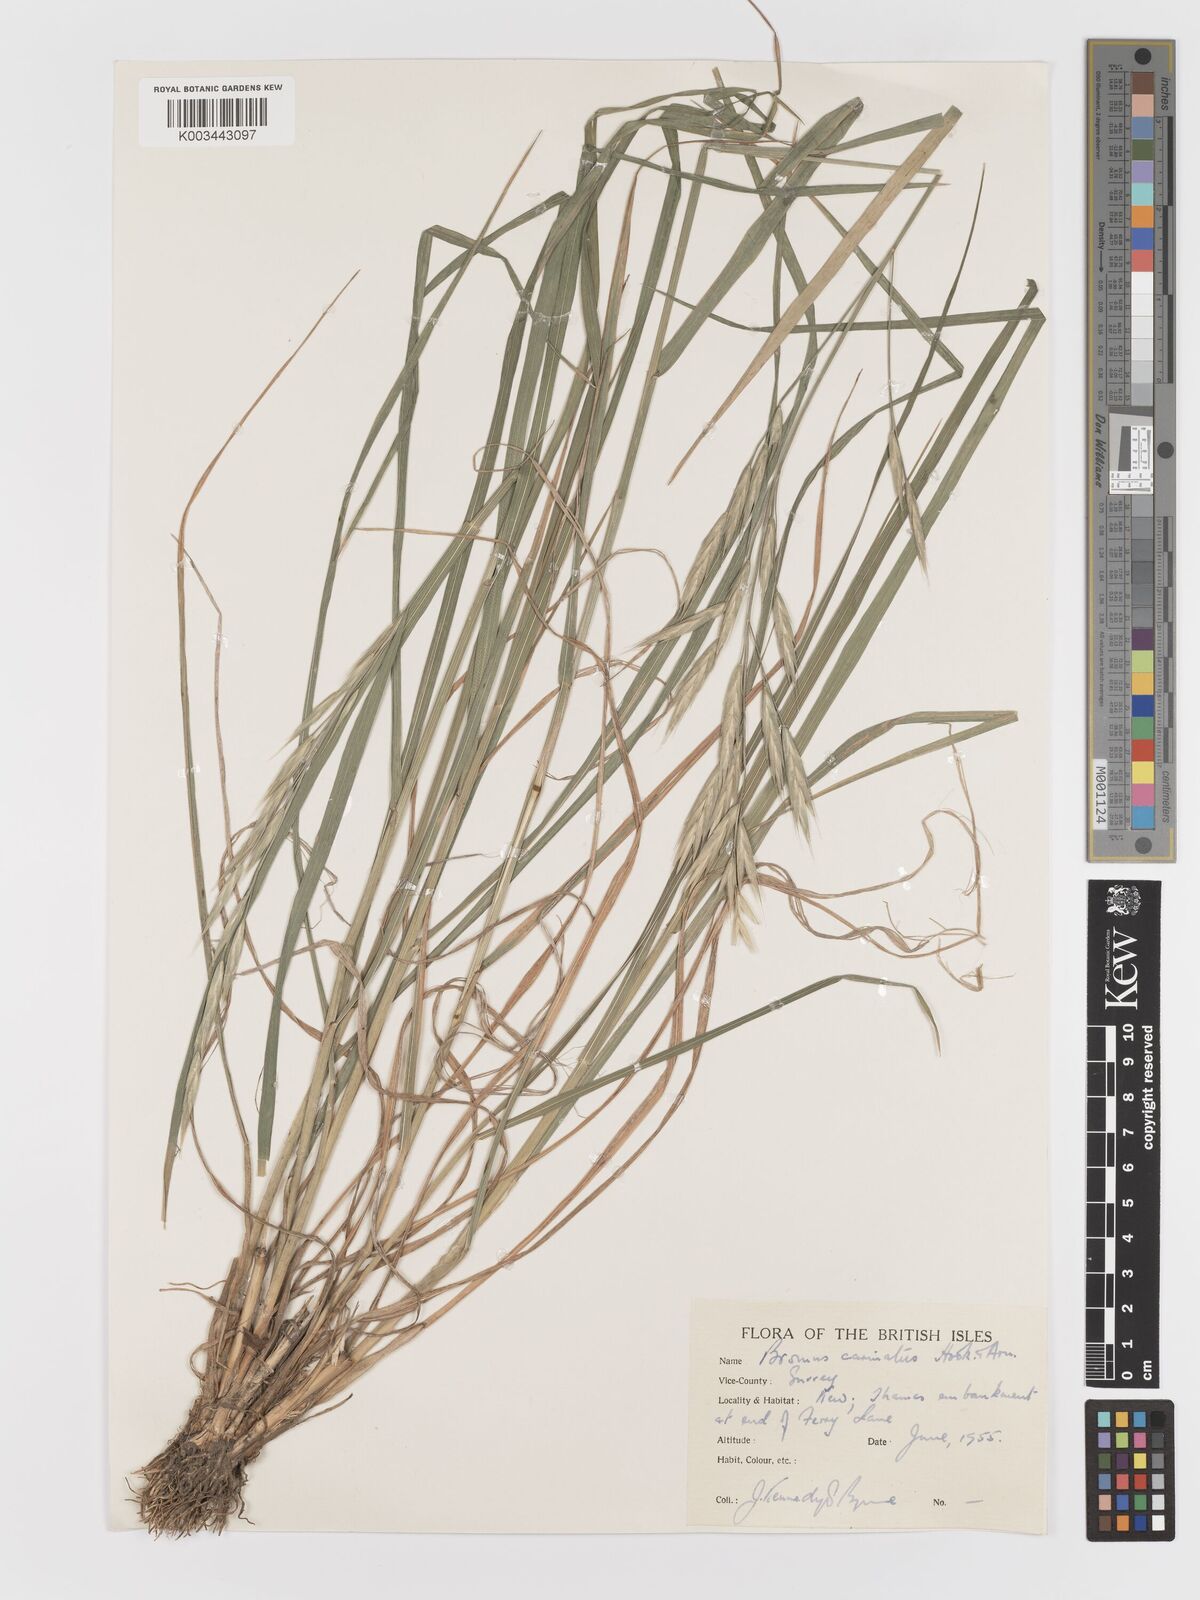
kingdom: Plantae
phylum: Tracheophyta
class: Liliopsida
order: Poales
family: Poaceae
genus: Bromus
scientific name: Bromus carinatus
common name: Mountain brome
